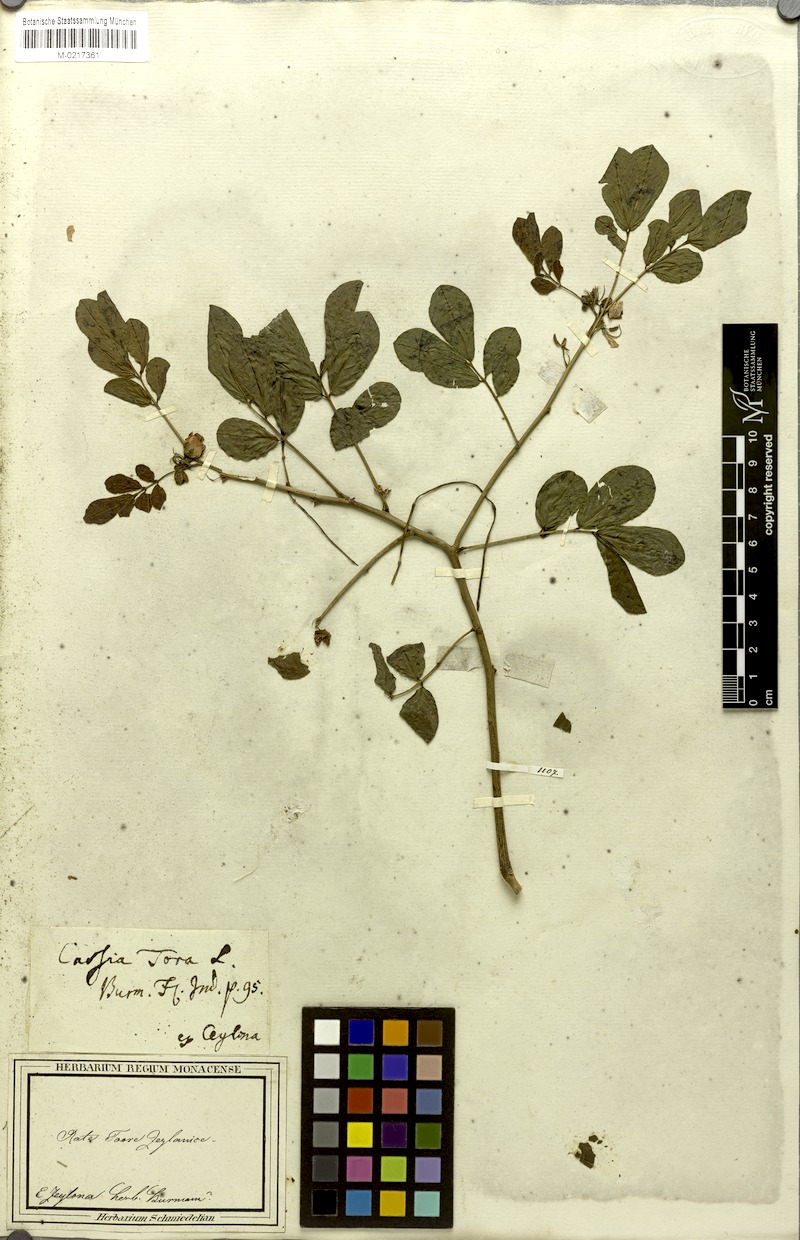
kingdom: Plantae
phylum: Tracheophyta
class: Magnoliopsida
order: Fabales
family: Fabaceae
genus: Senna
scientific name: Senna obtusifolia
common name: Java-bean
